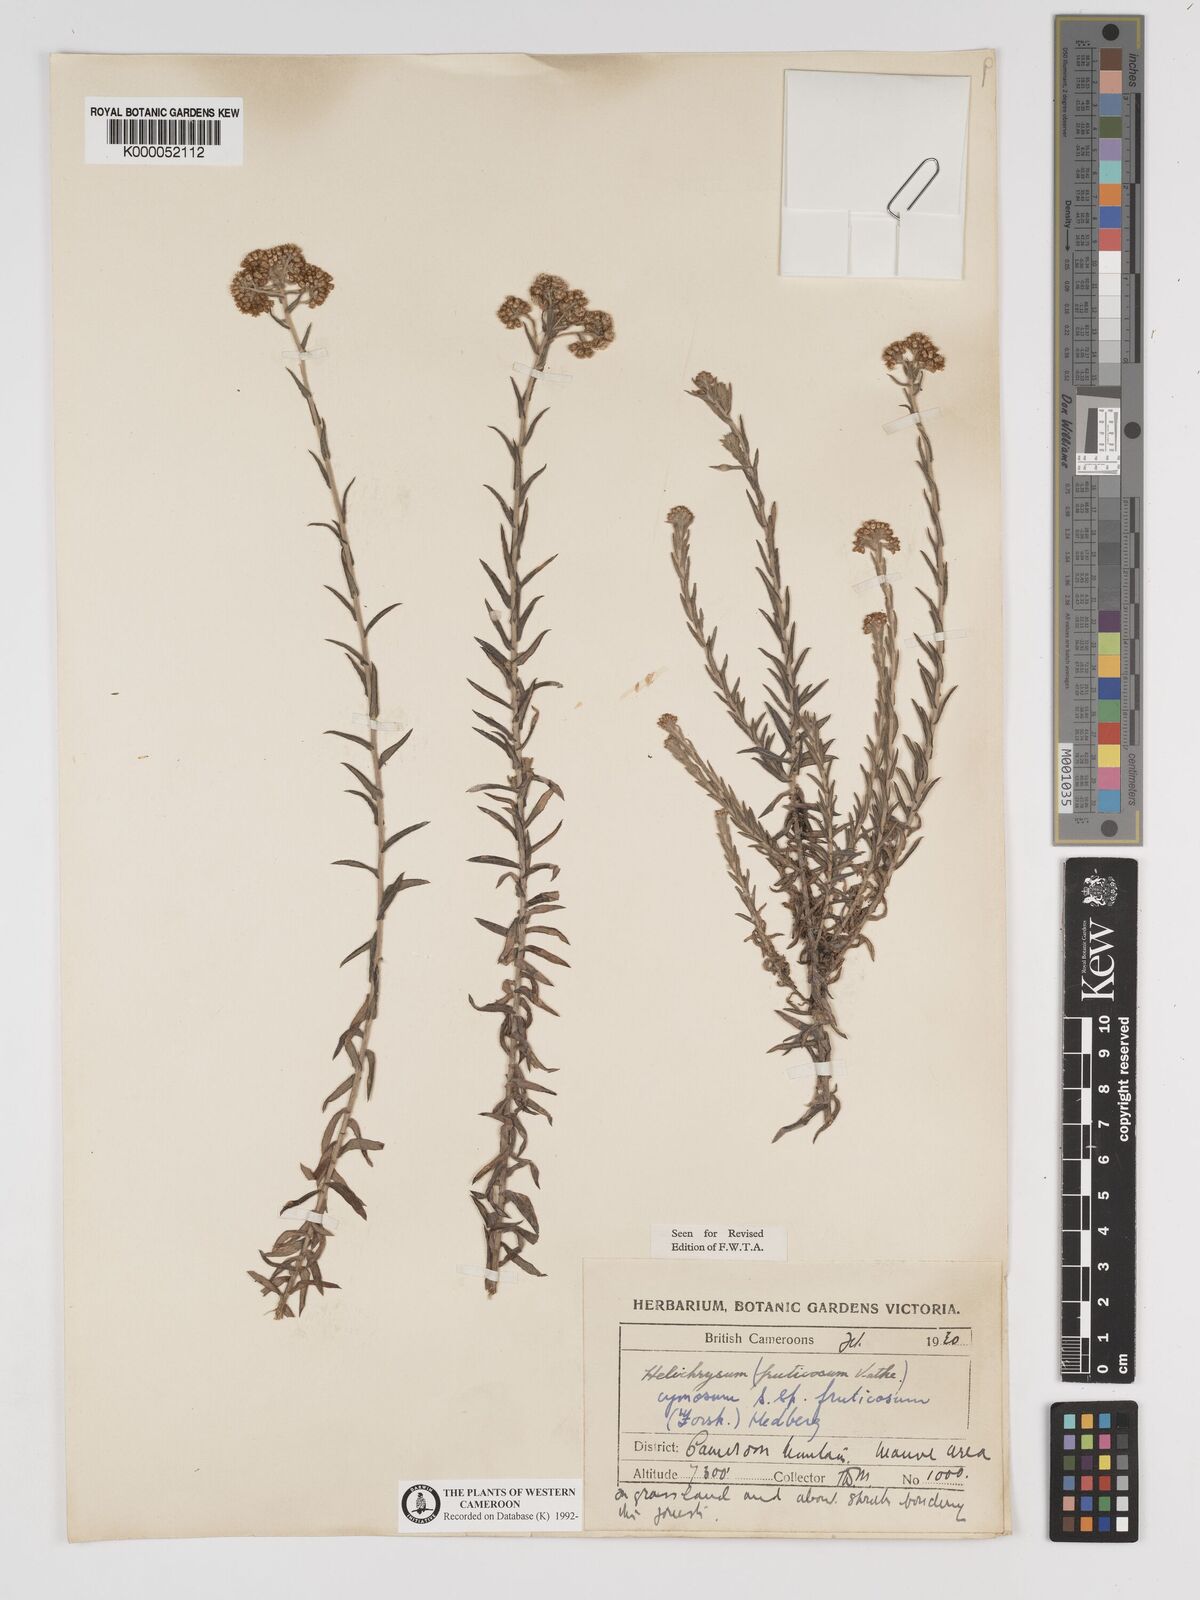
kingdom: Plantae
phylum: Tracheophyta
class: Magnoliopsida
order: Asterales
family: Asteraceae
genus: Helichrysum
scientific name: Helichrysum forskahlii
